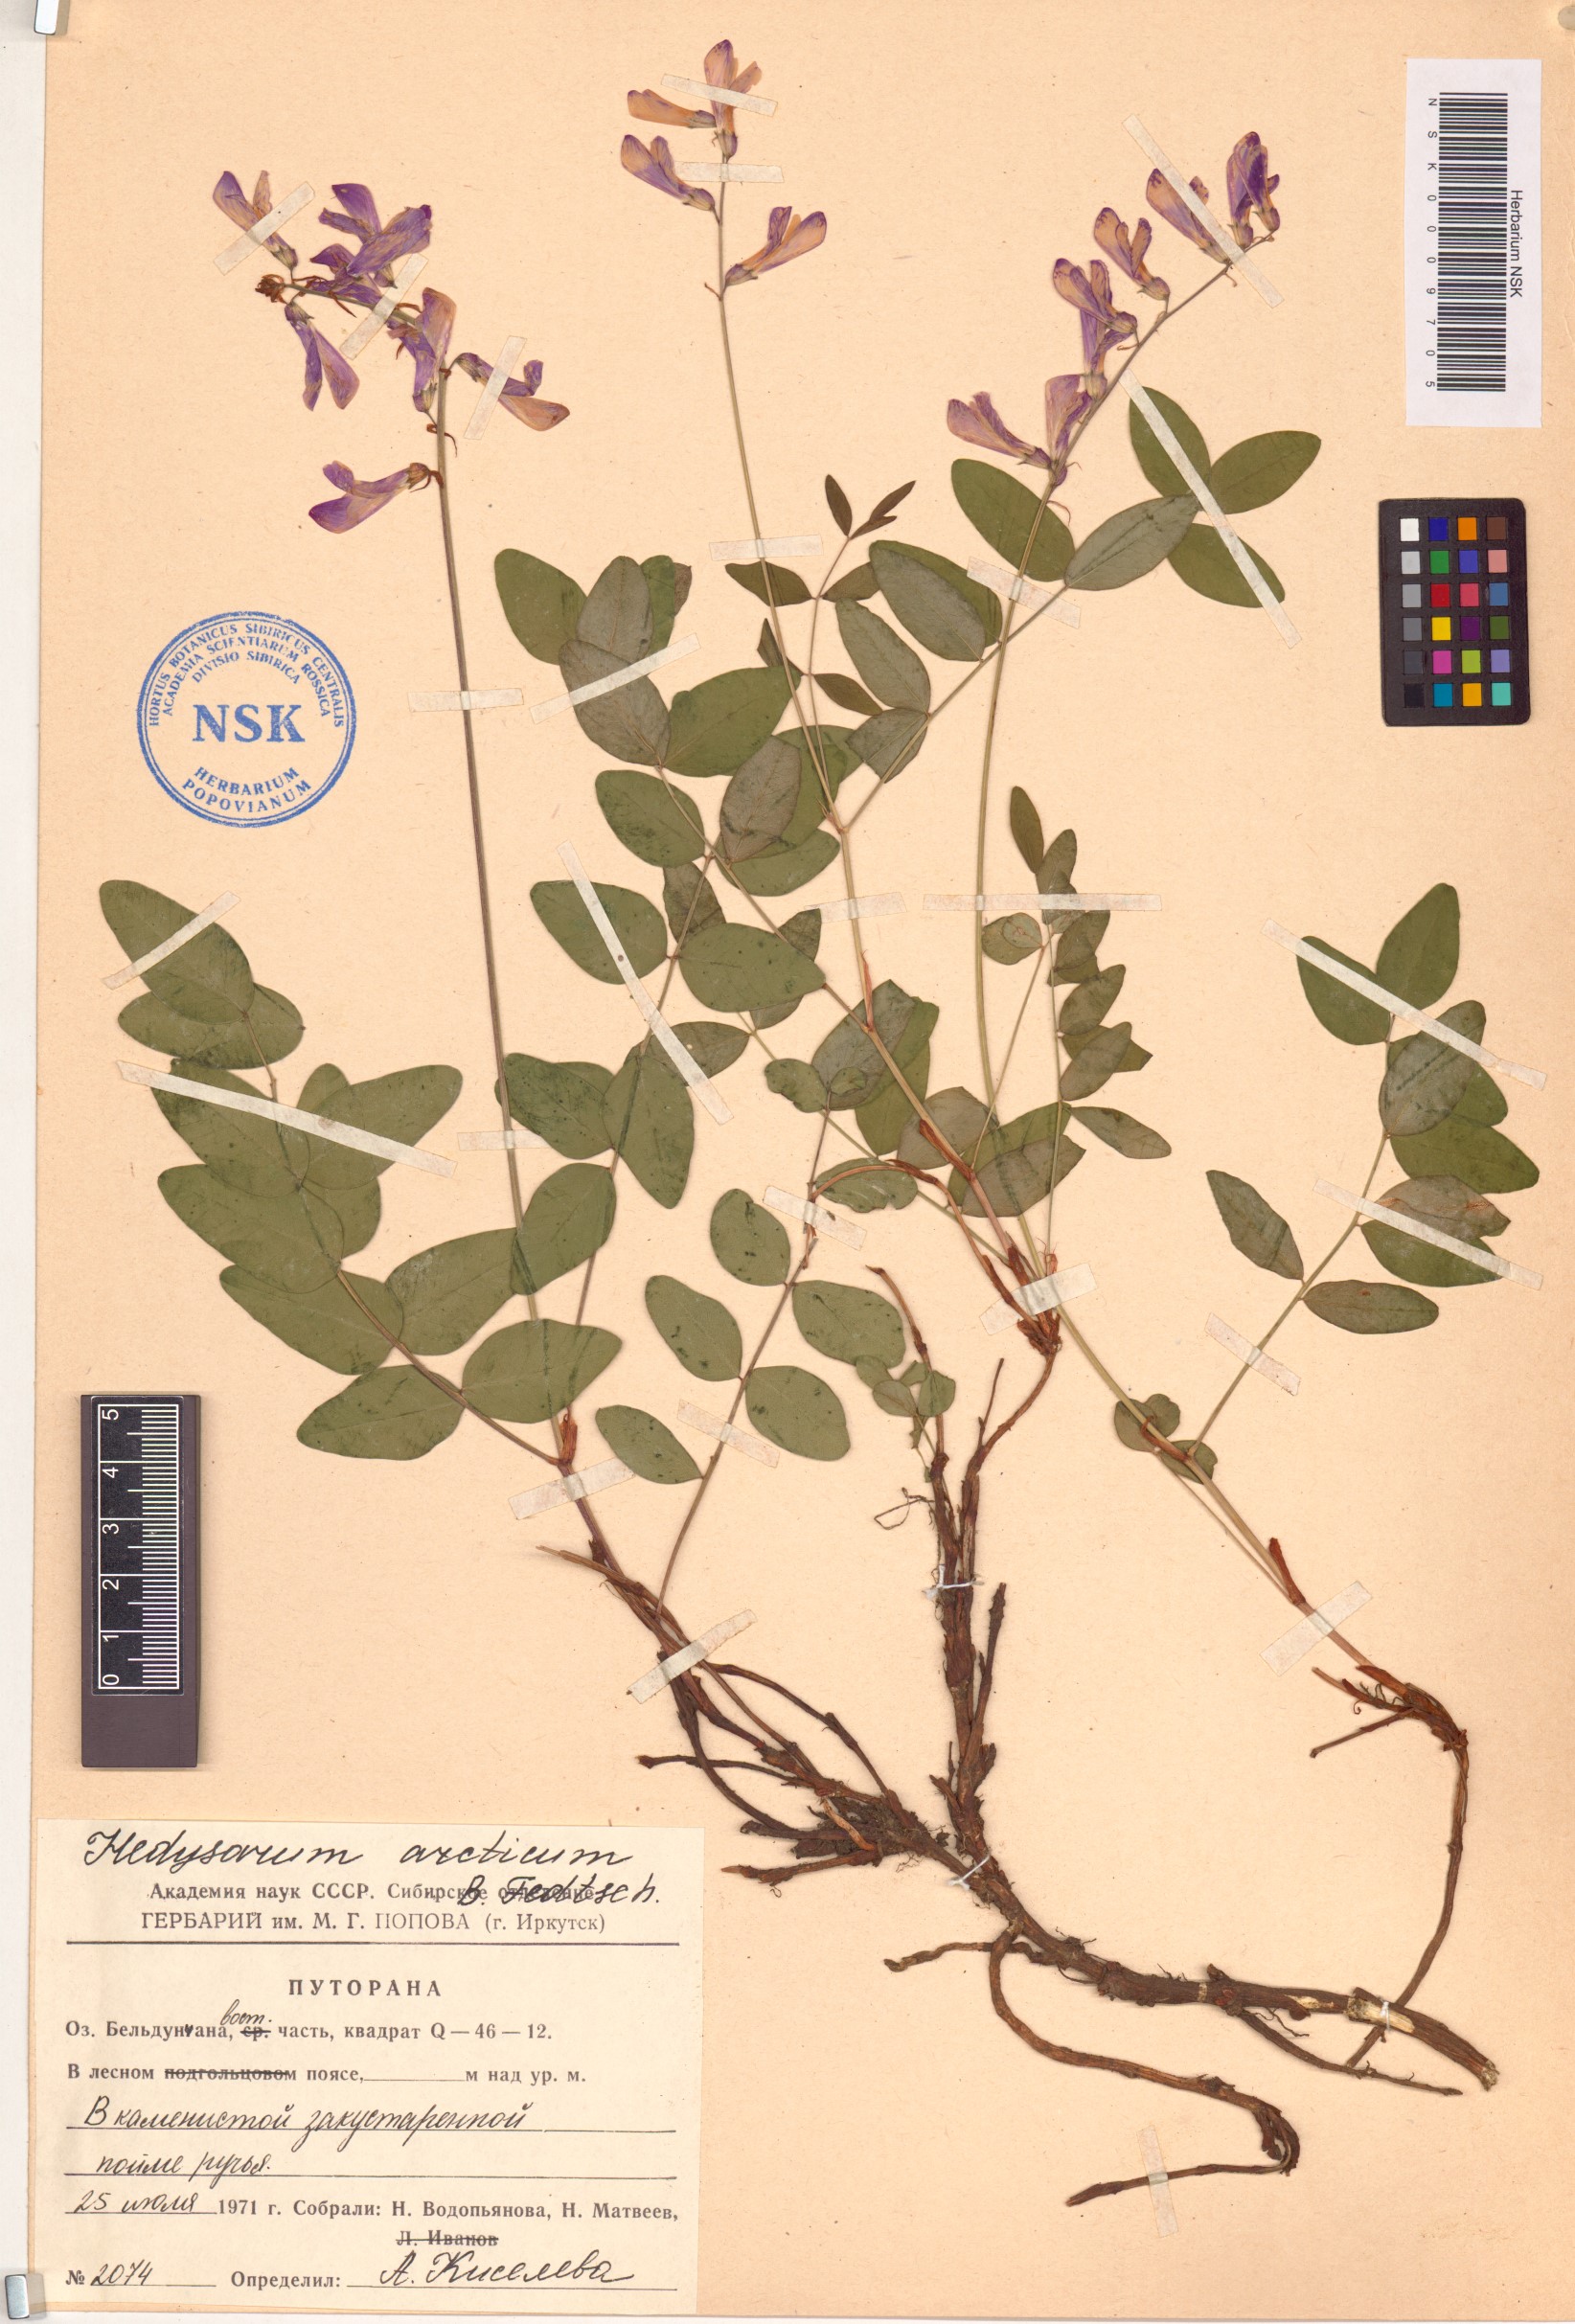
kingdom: Plantae
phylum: Tracheophyta
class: Magnoliopsida
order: Fabales
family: Fabaceae
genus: Hedysarum
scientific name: Hedysarum hedysaroides
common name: Alpine french-honeysuckle
